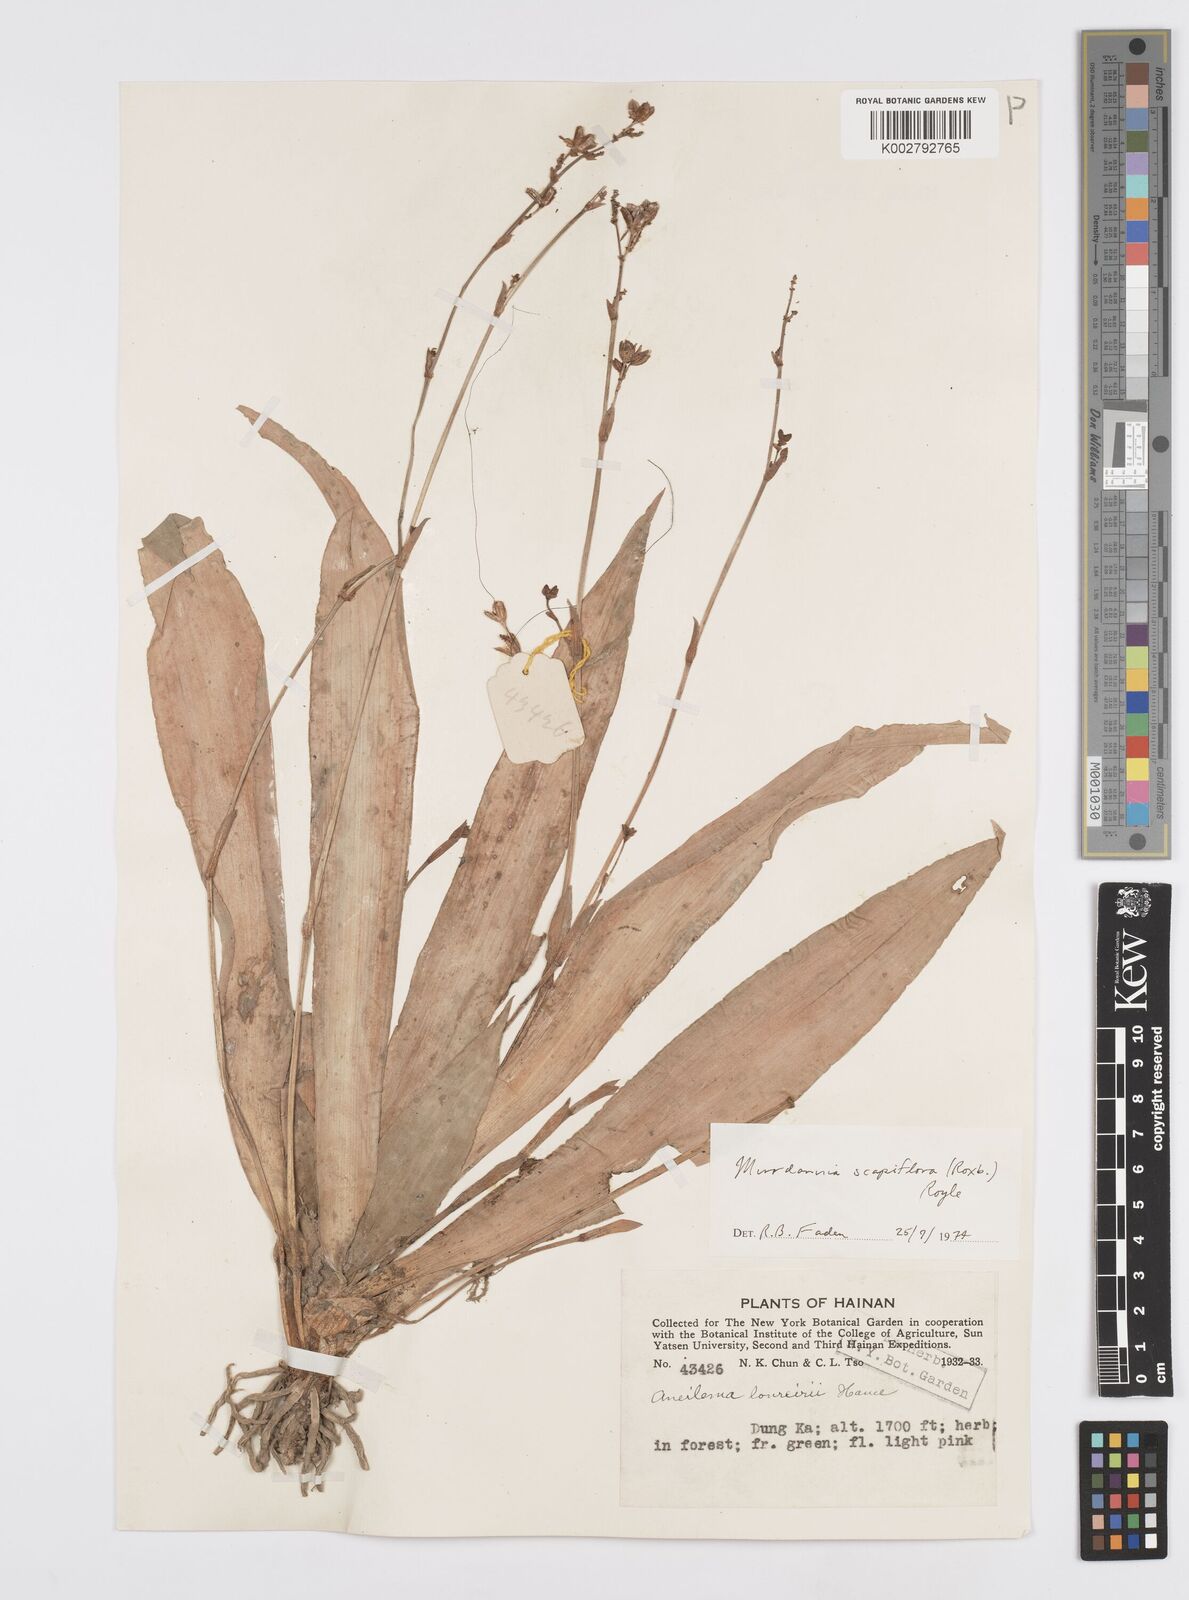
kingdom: Plantae
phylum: Tracheophyta
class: Liliopsida
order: Commelinales
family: Commelinaceae
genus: Murdannia
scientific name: Murdannia edulis
